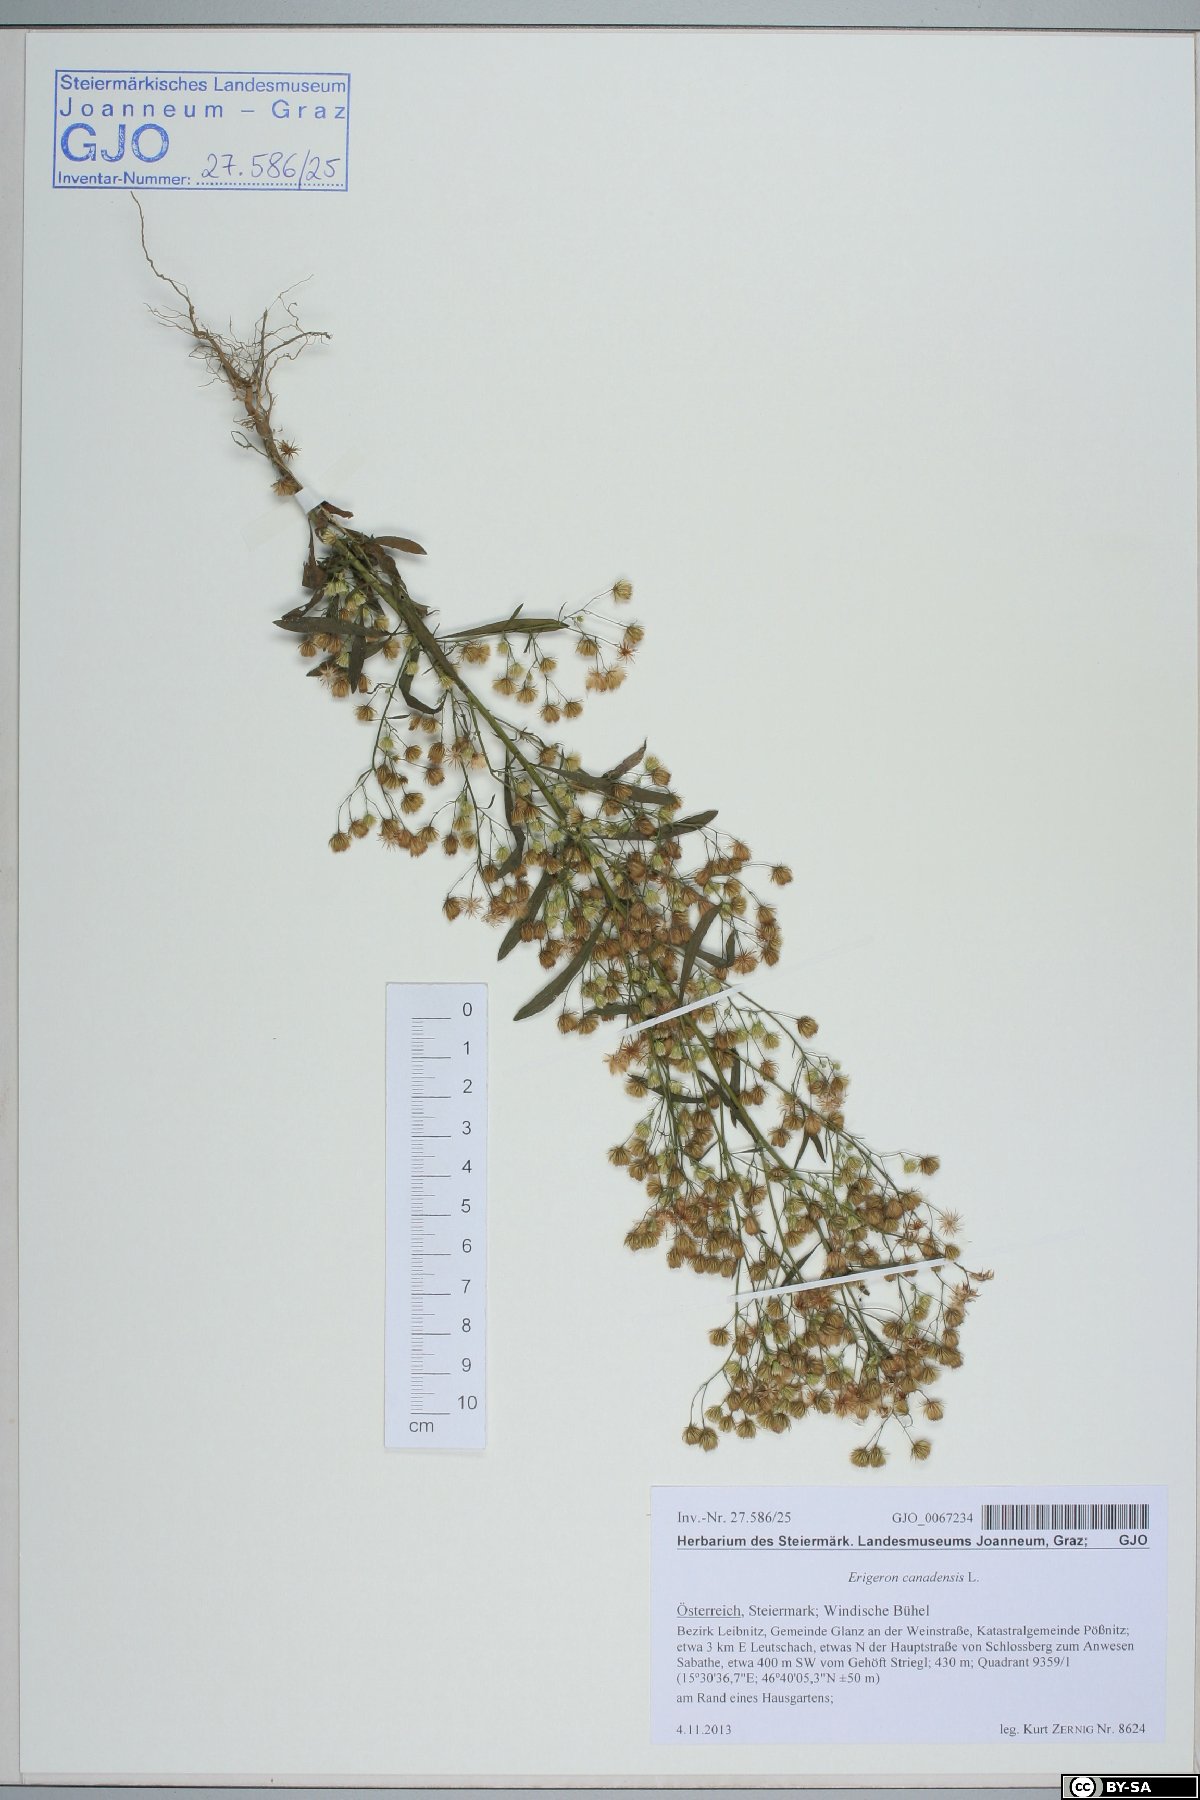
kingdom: Plantae
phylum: Tracheophyta
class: Magnoliopsida
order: Asterales
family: Asteraceae
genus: Erigeron
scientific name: Erigeron canadensis
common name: Canadian fleabane
